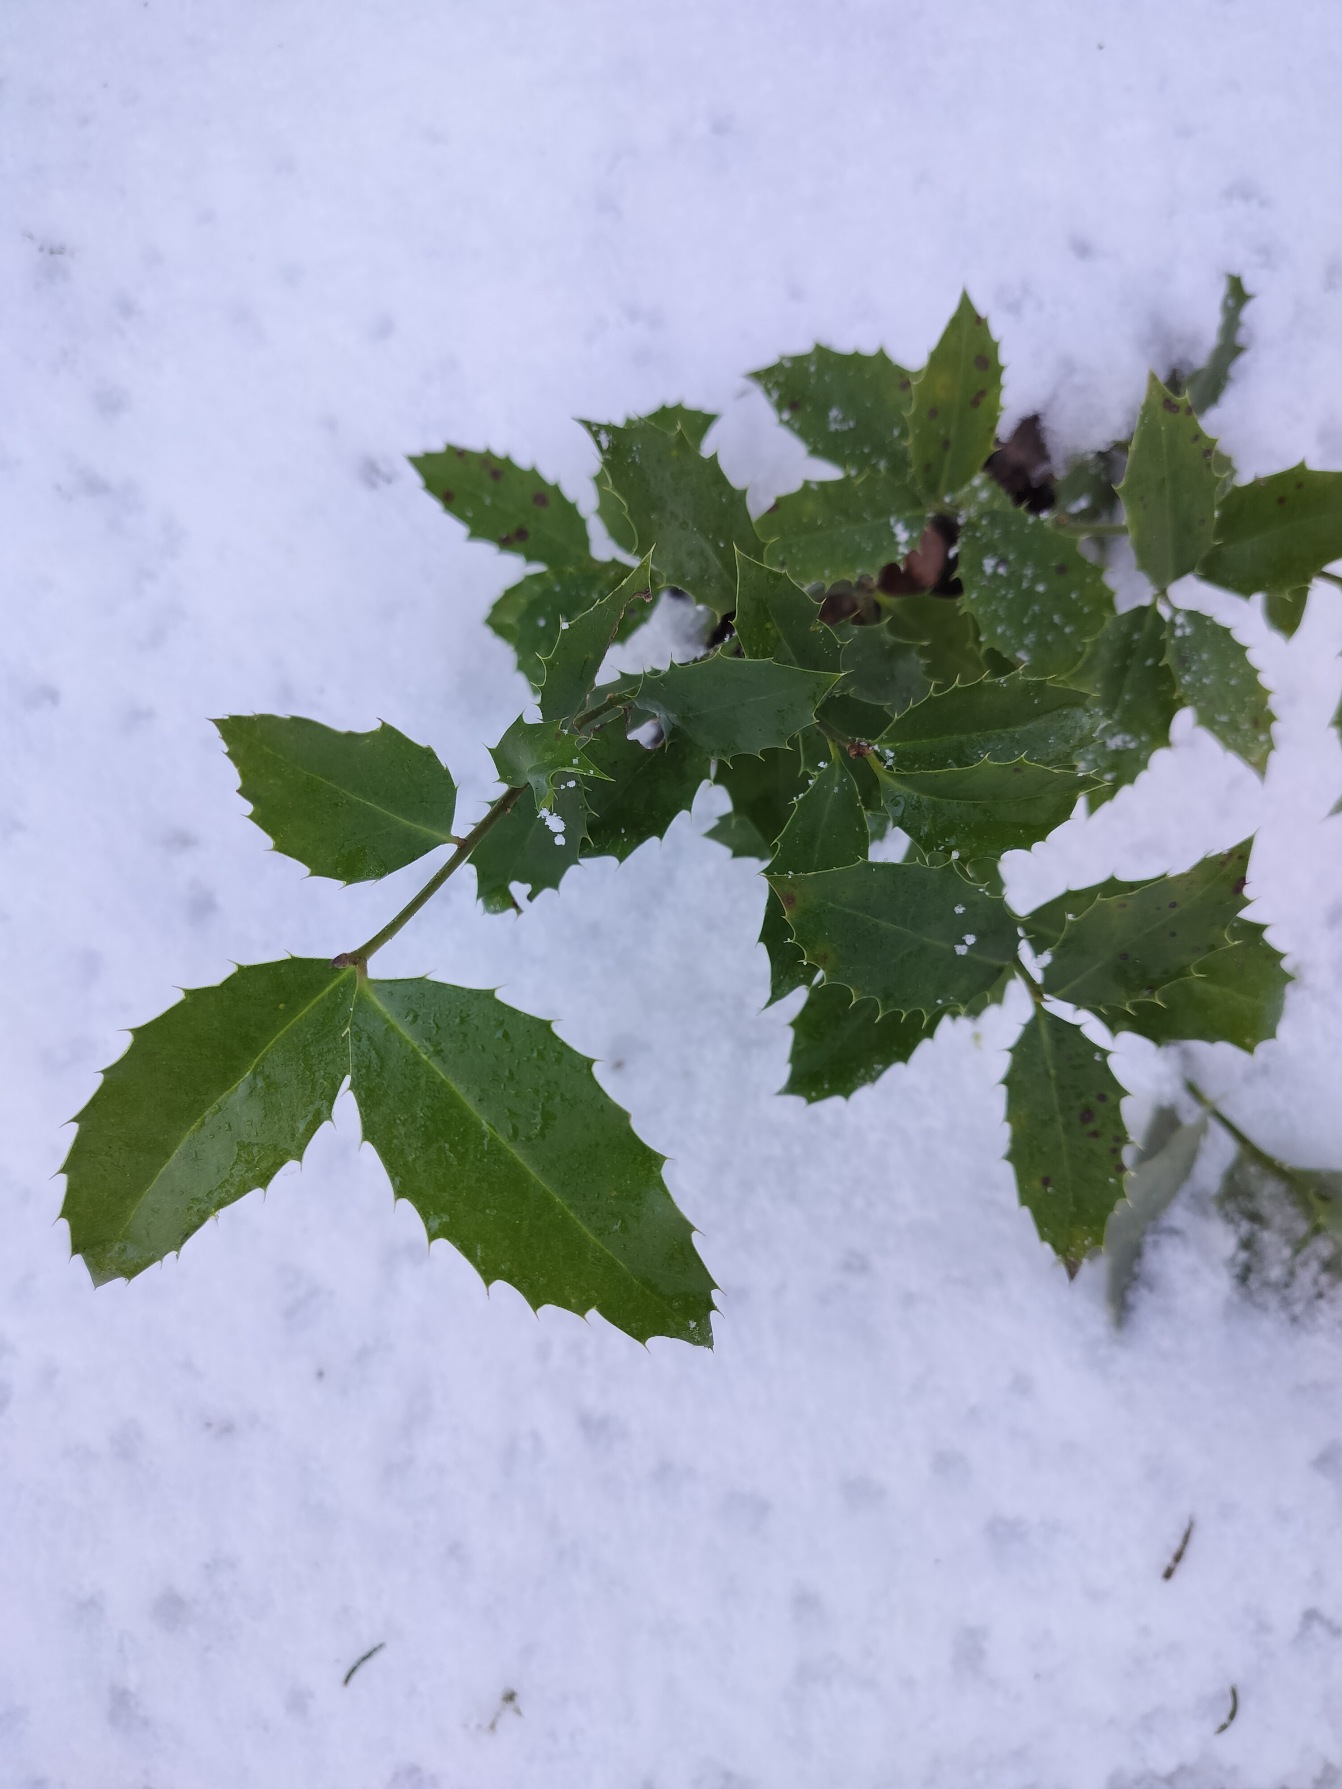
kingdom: Plantae
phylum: Tracheophyta
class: Magnoliopsida
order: Aquifoliales
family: Aquifoliaceae
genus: Ilex
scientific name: Ilex
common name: Kristtornslægten
